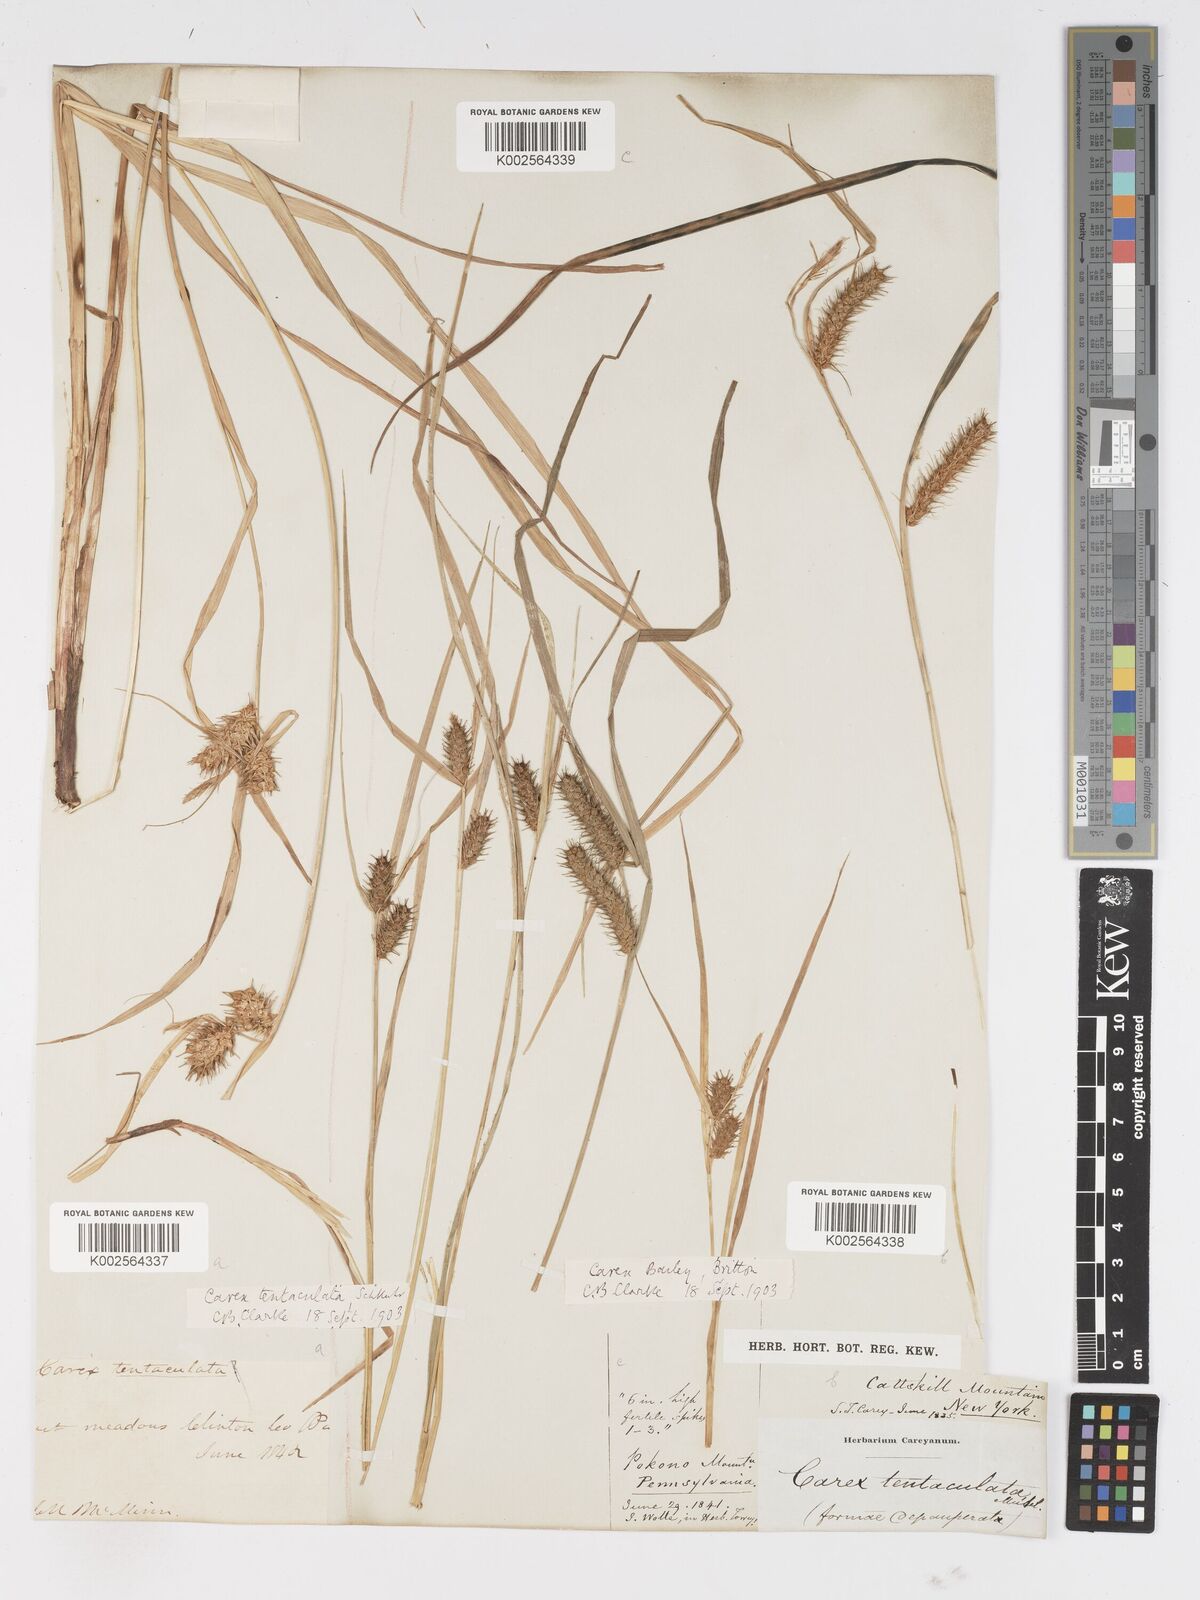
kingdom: Plantae
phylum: Tracheophyta
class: Liliopsida
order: Poales
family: Cyperaceae
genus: Carex
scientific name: Carex baileyi
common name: Bailey's sedge
